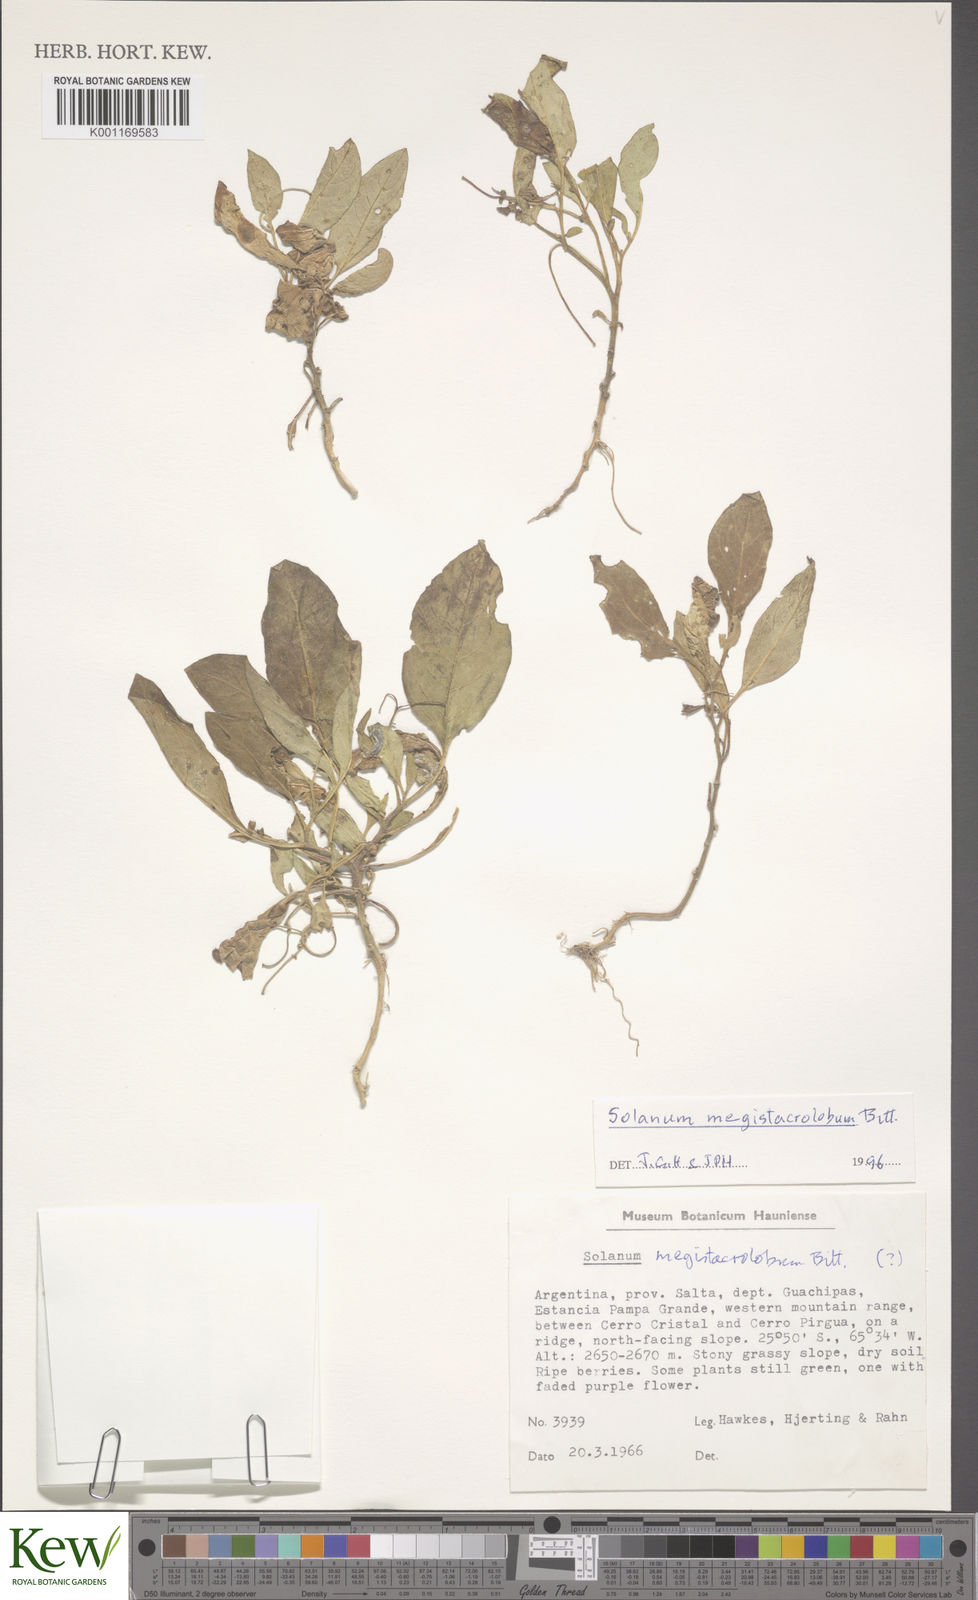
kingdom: Plantae
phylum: Tracheophyta
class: Magnoliopsida
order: Solanales
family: Solanaceae
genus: Solanum
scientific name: Solanum boliviense
